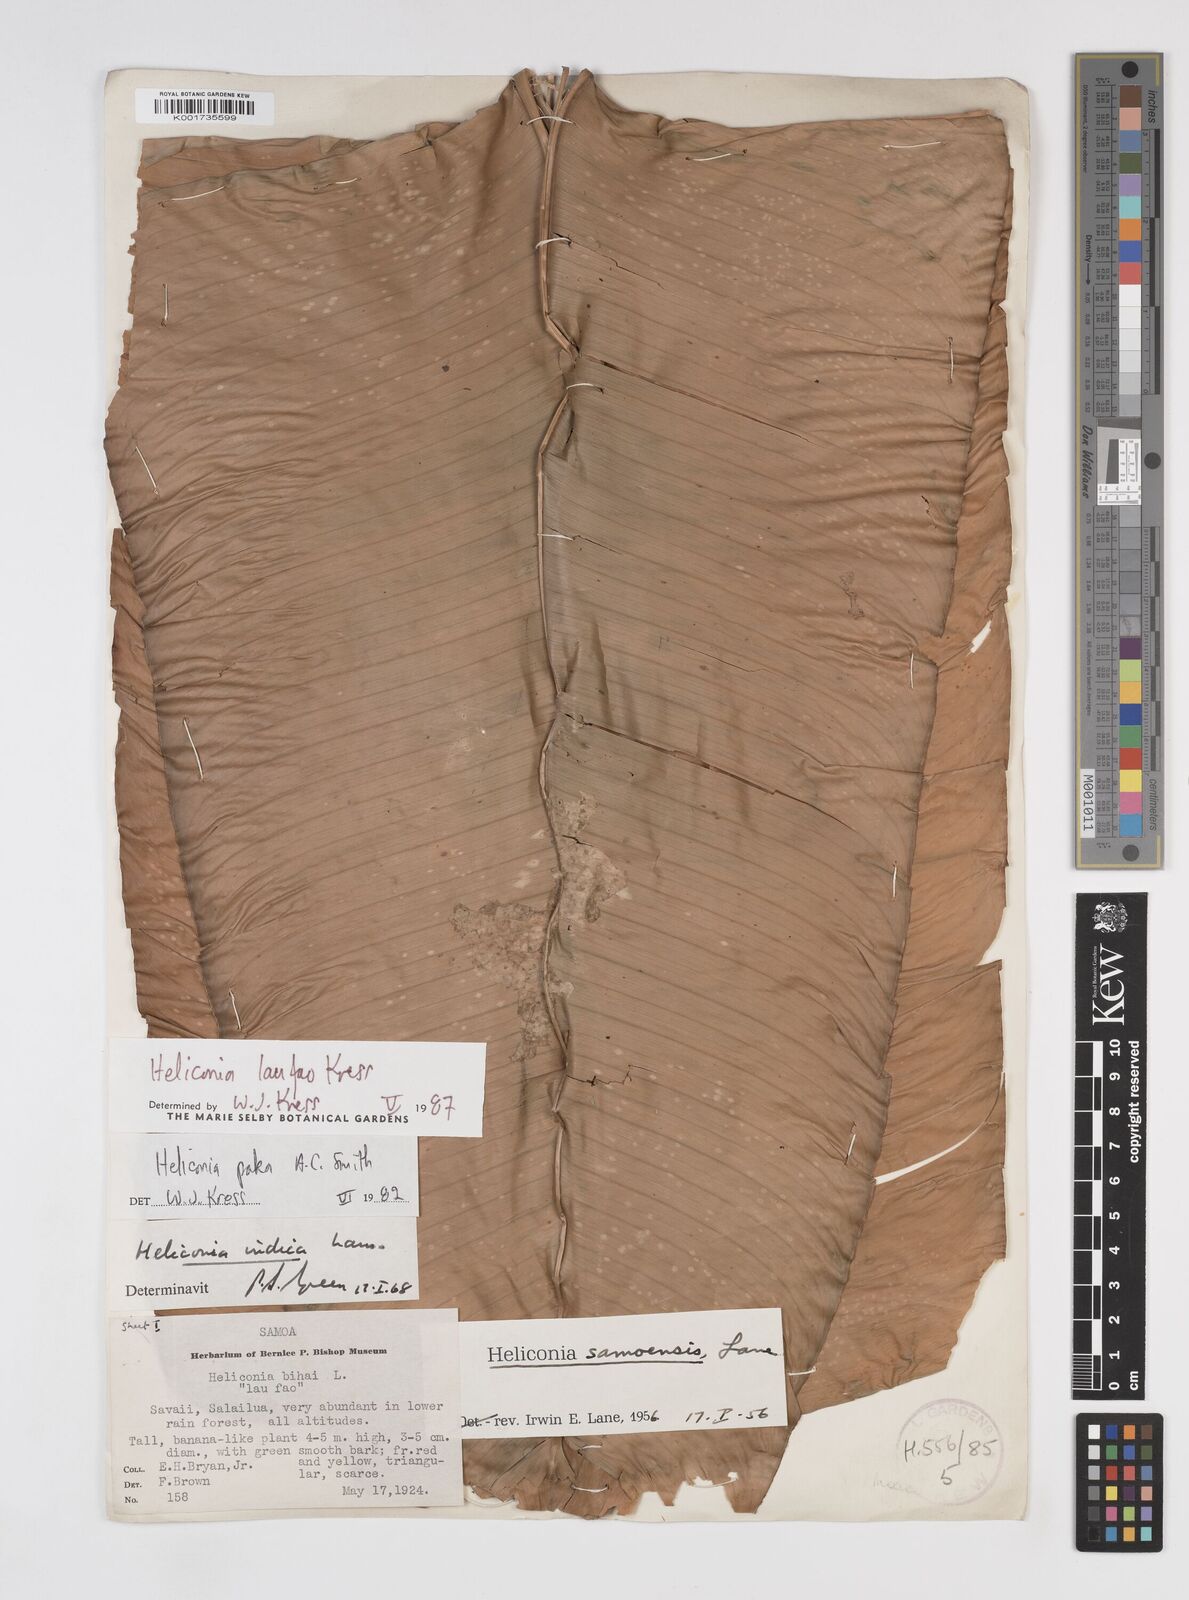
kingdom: Plantae
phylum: Tracheophyta
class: Liliopsida
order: Zingiberales
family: Heliconiaceae
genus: Heliconia
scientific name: Heliconia laufao
